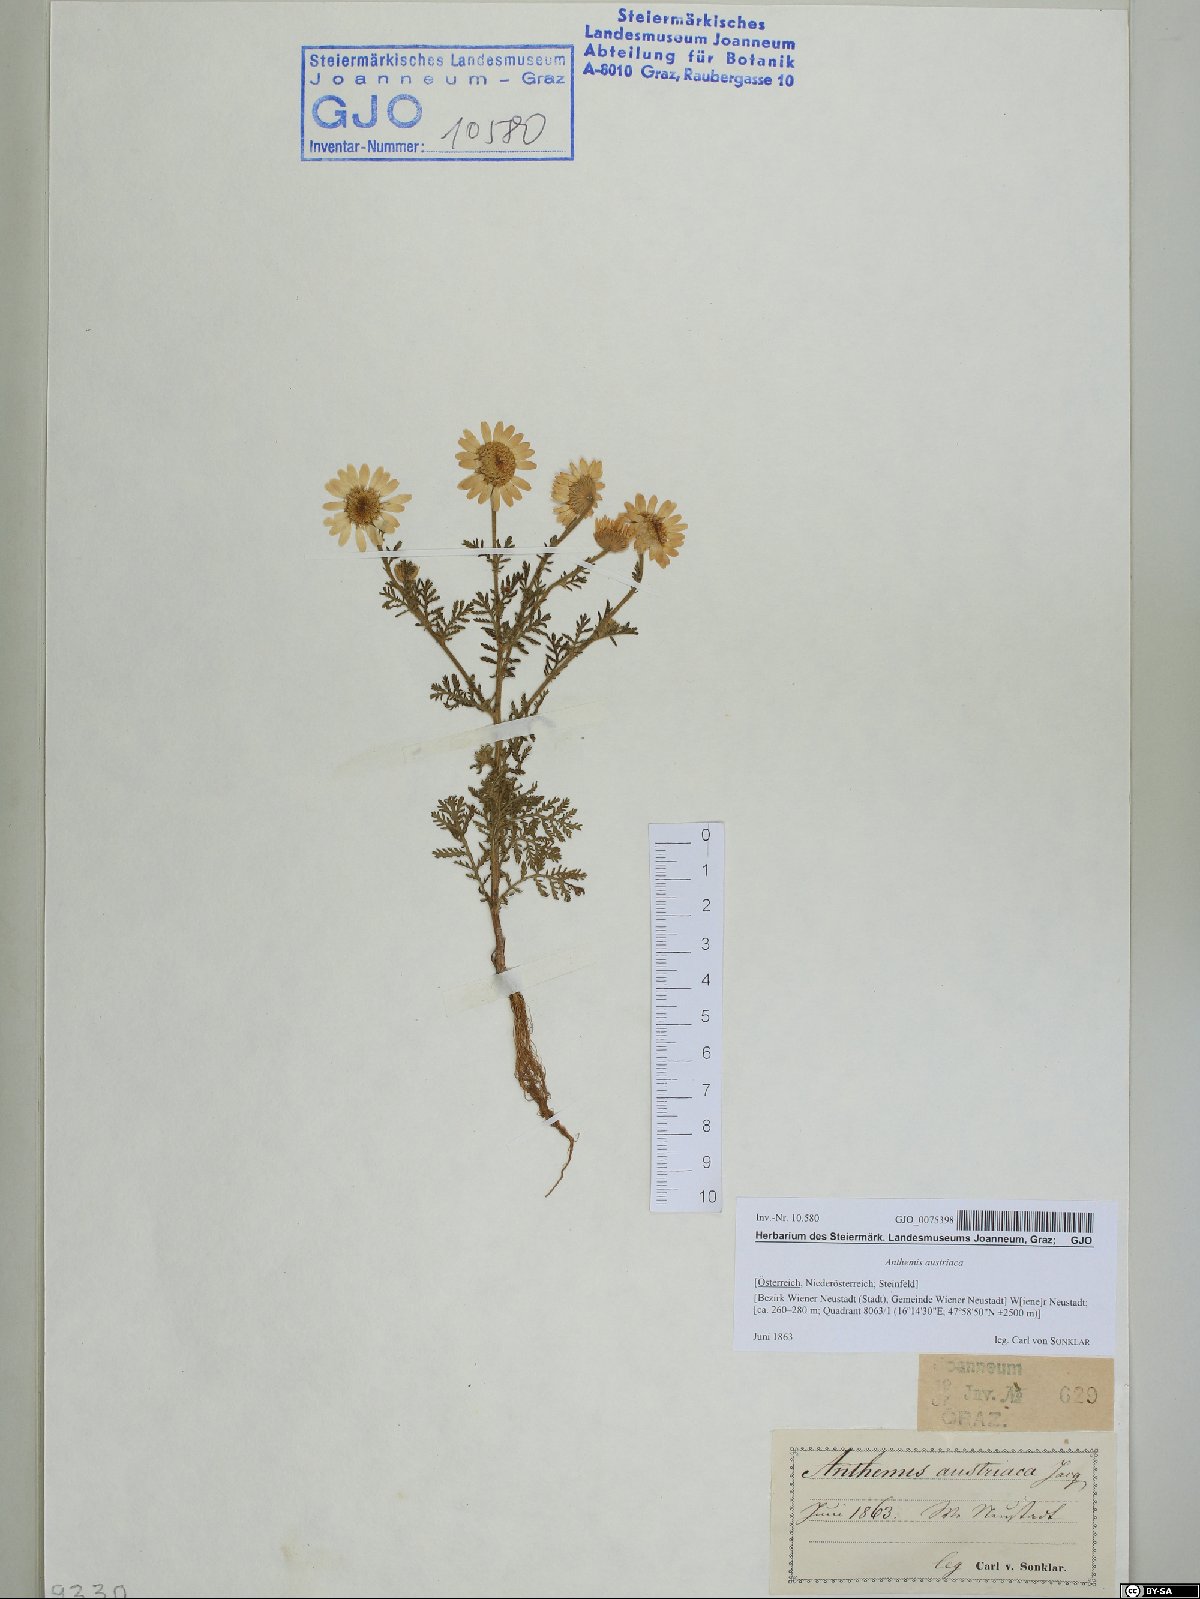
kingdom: Plantae
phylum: Tracheophyta
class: Magnoliopsida
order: Asterales
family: Asteraceae
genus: Cota
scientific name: Cota austriaca
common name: Austrian chamomile
